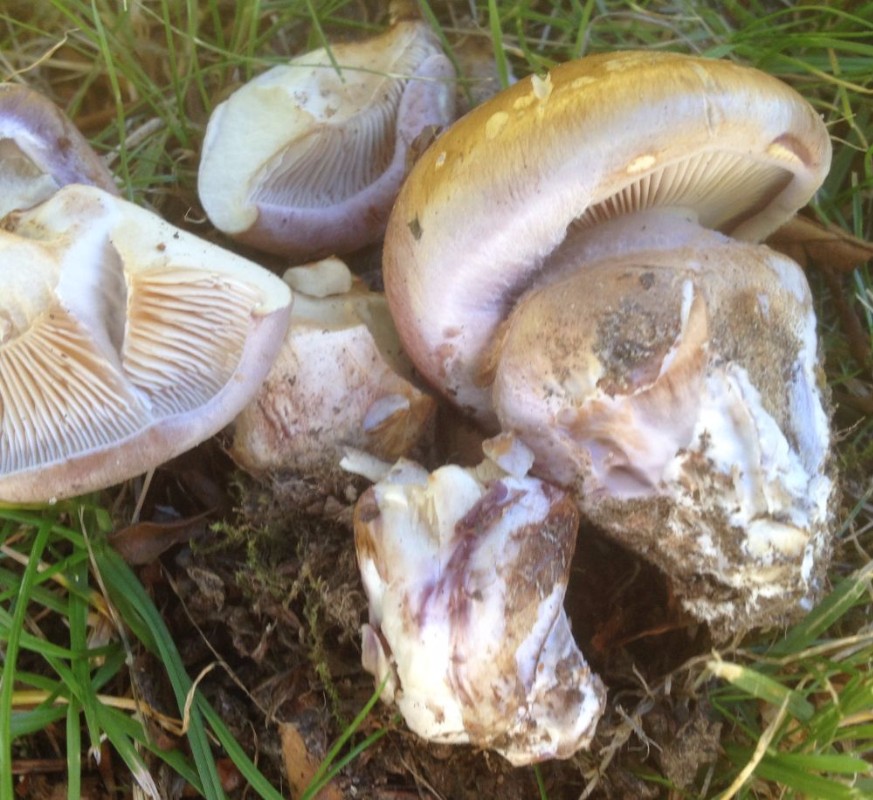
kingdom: Fungi
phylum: Basidiomycota
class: Agaricomycetes
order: Agaricales
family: Cortinariaceae
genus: Phlegmacium
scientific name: Phlegmacium balteatocumatile
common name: violettrådet slørhat
